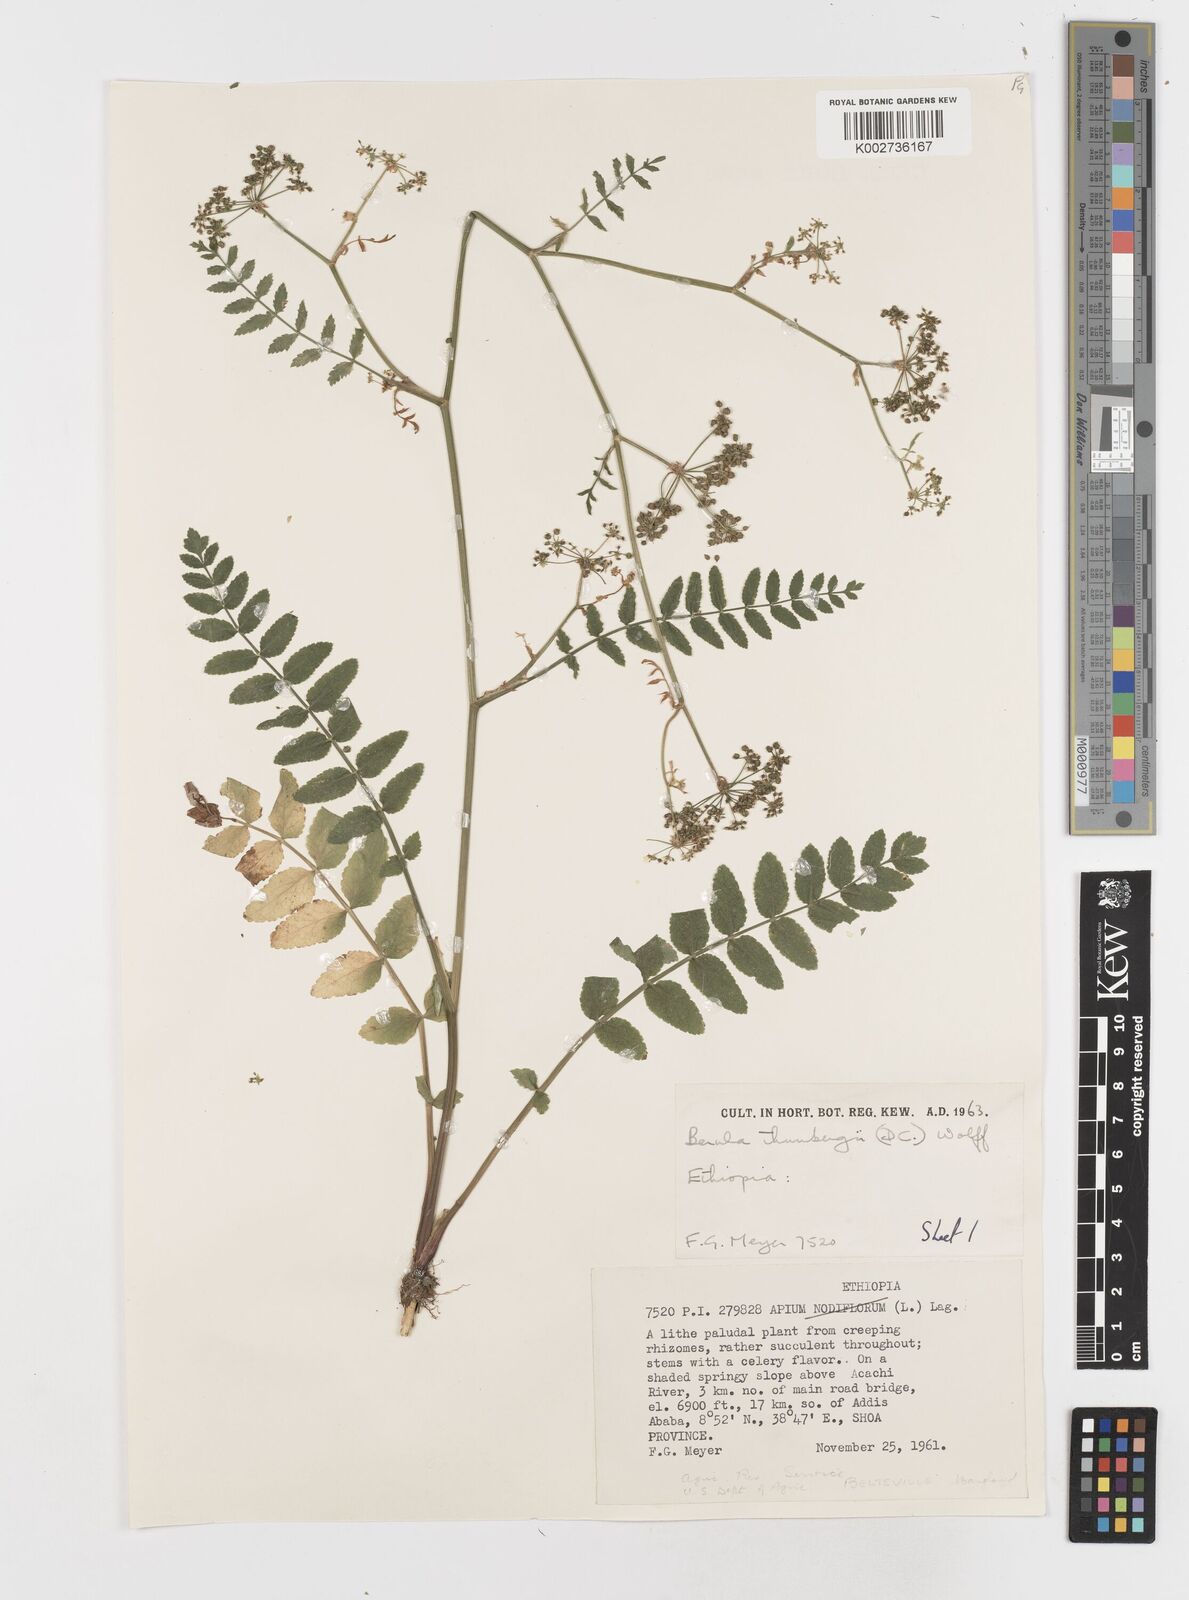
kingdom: Plantae
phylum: Tracheophyta
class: Magnoliopsida
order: Apiales
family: Apiaceae
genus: Berula
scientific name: Berula erecta
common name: Lesser water-parsnip
